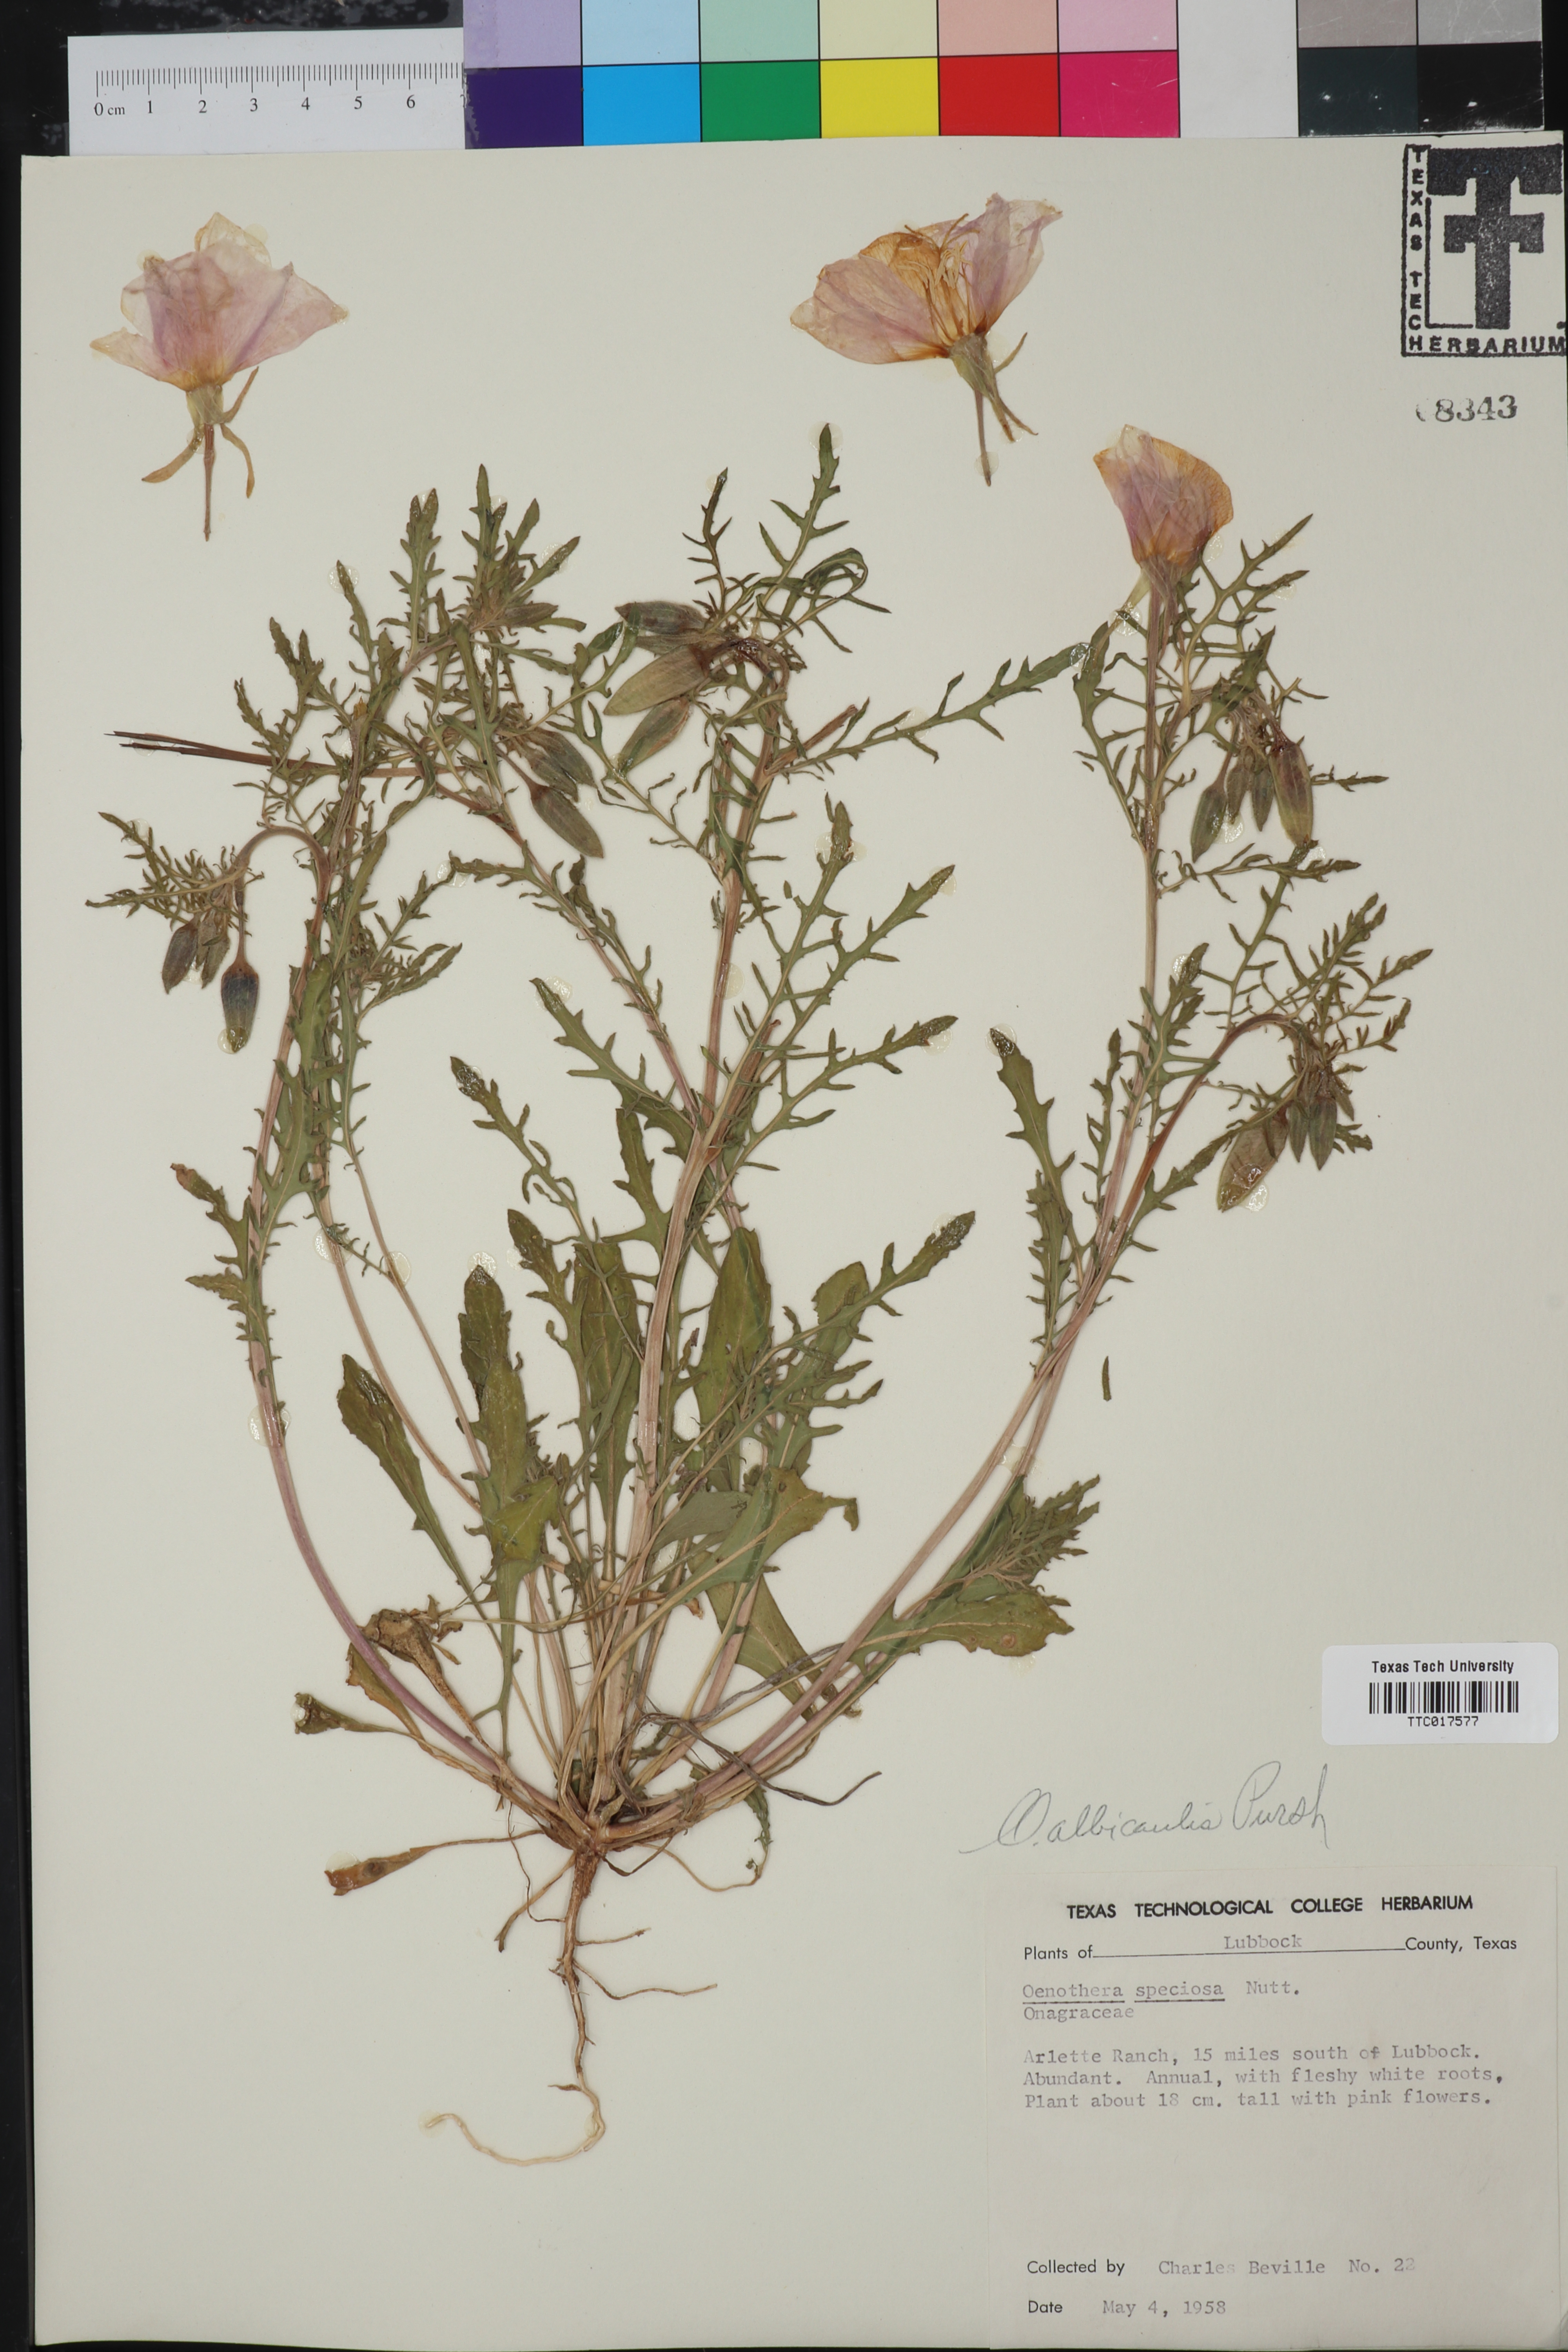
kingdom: Plantae
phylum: Tracheophyta
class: Magnoliopsida
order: Myrtales
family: Onagraceae
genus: Oenothera
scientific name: Oenothera albicaulis
